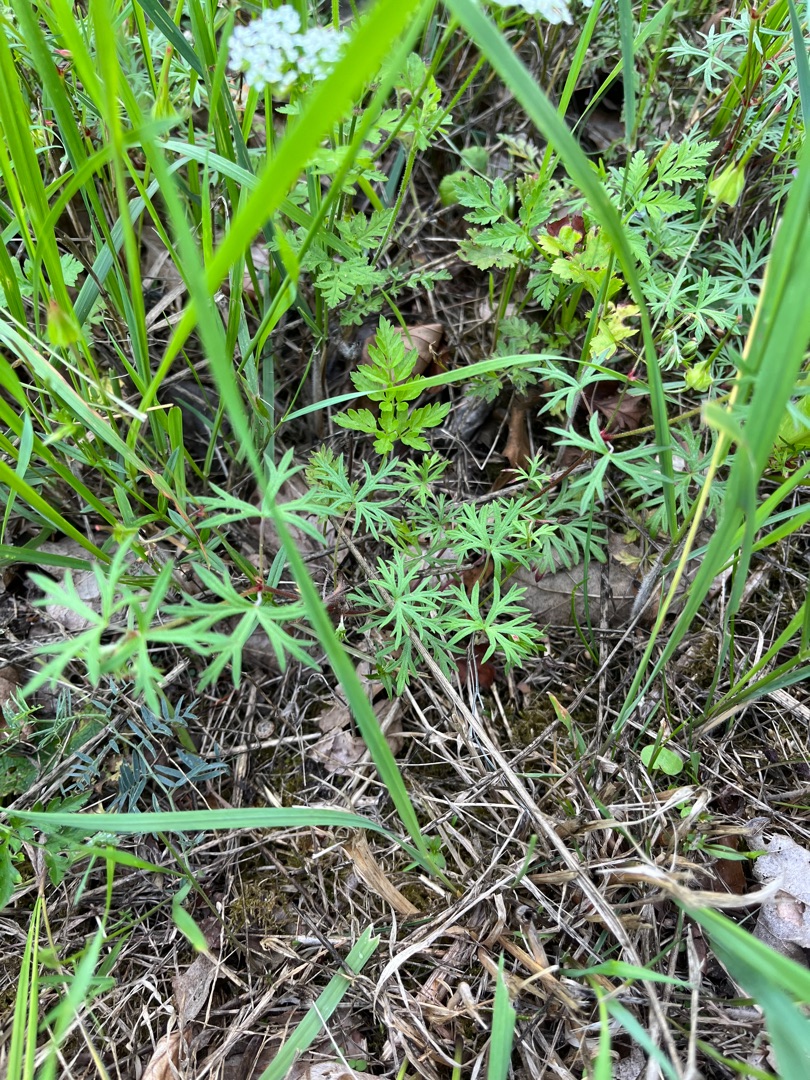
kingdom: Plantae
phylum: Tracheophyta
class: Magnoliopsida
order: Geraniales
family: Geraniaceae
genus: Geranium
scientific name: Geranium columbinum
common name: Storbægret storkenæb
